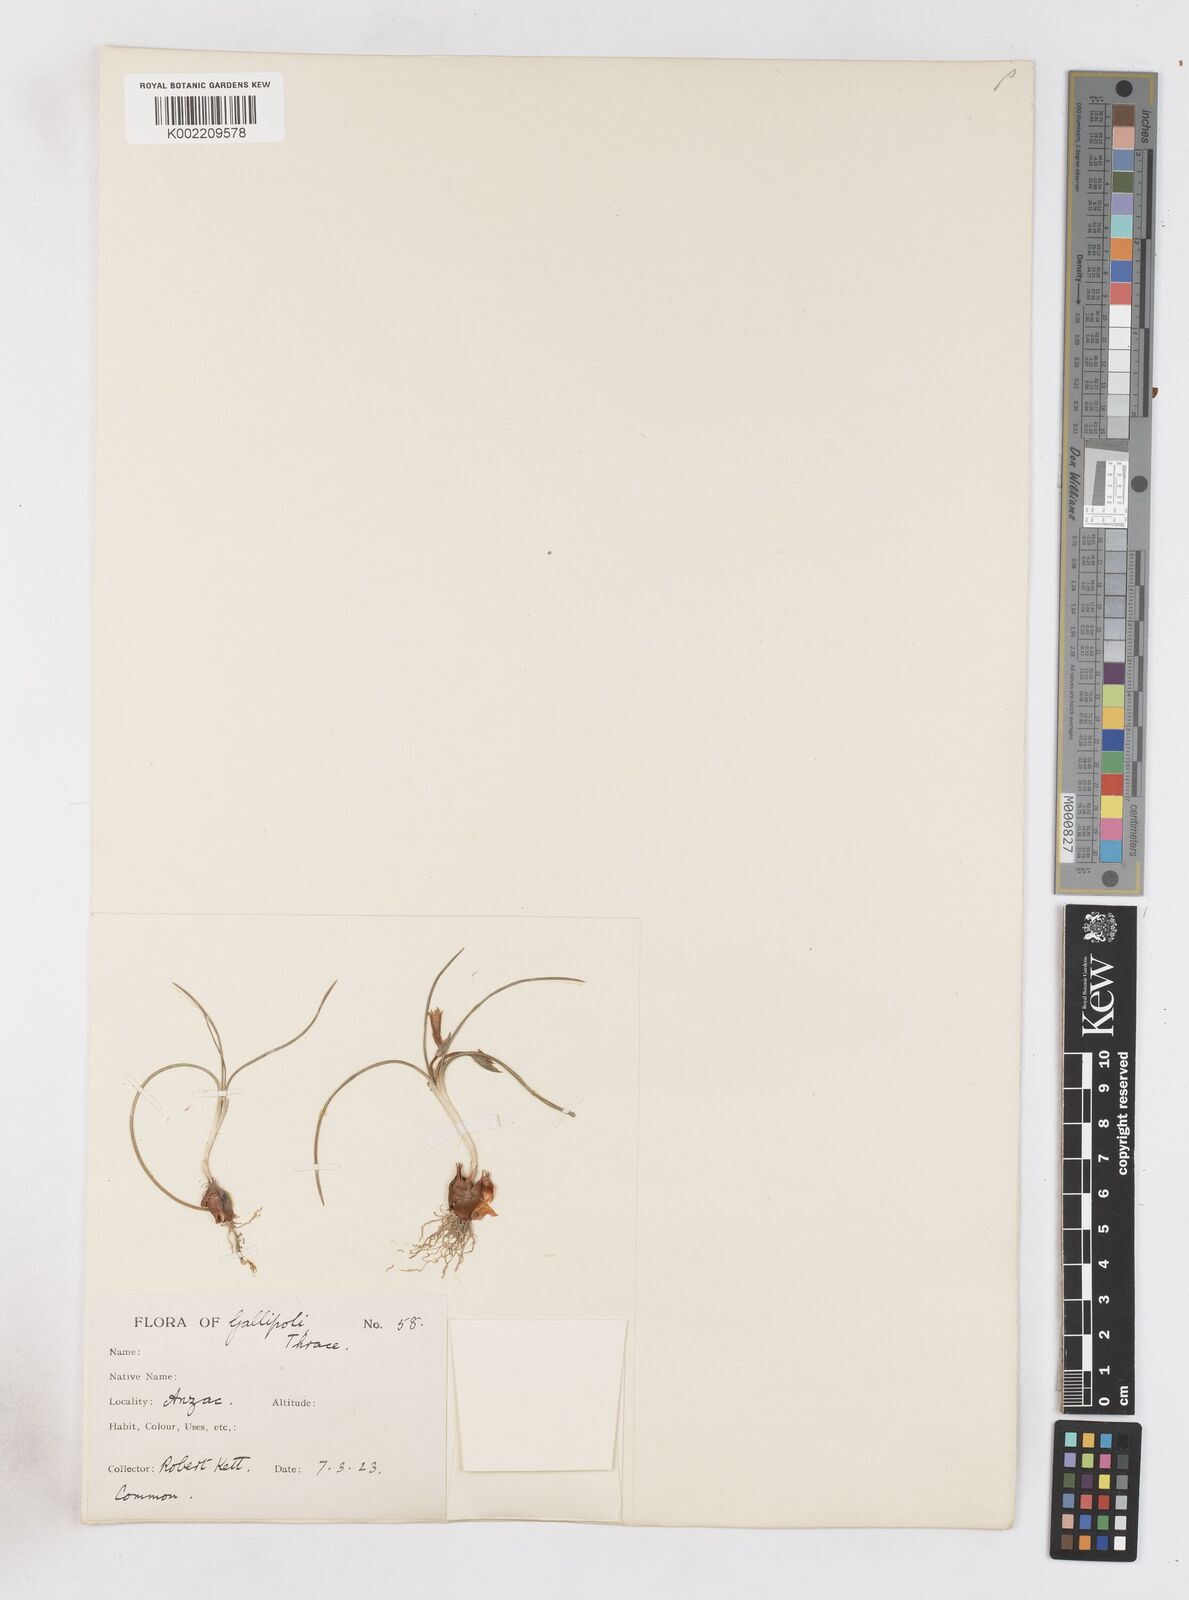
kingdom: Plantae
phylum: Tracheophyta
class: Liliopsida
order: Asparagales
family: Iridaceae
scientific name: Iridaceae
